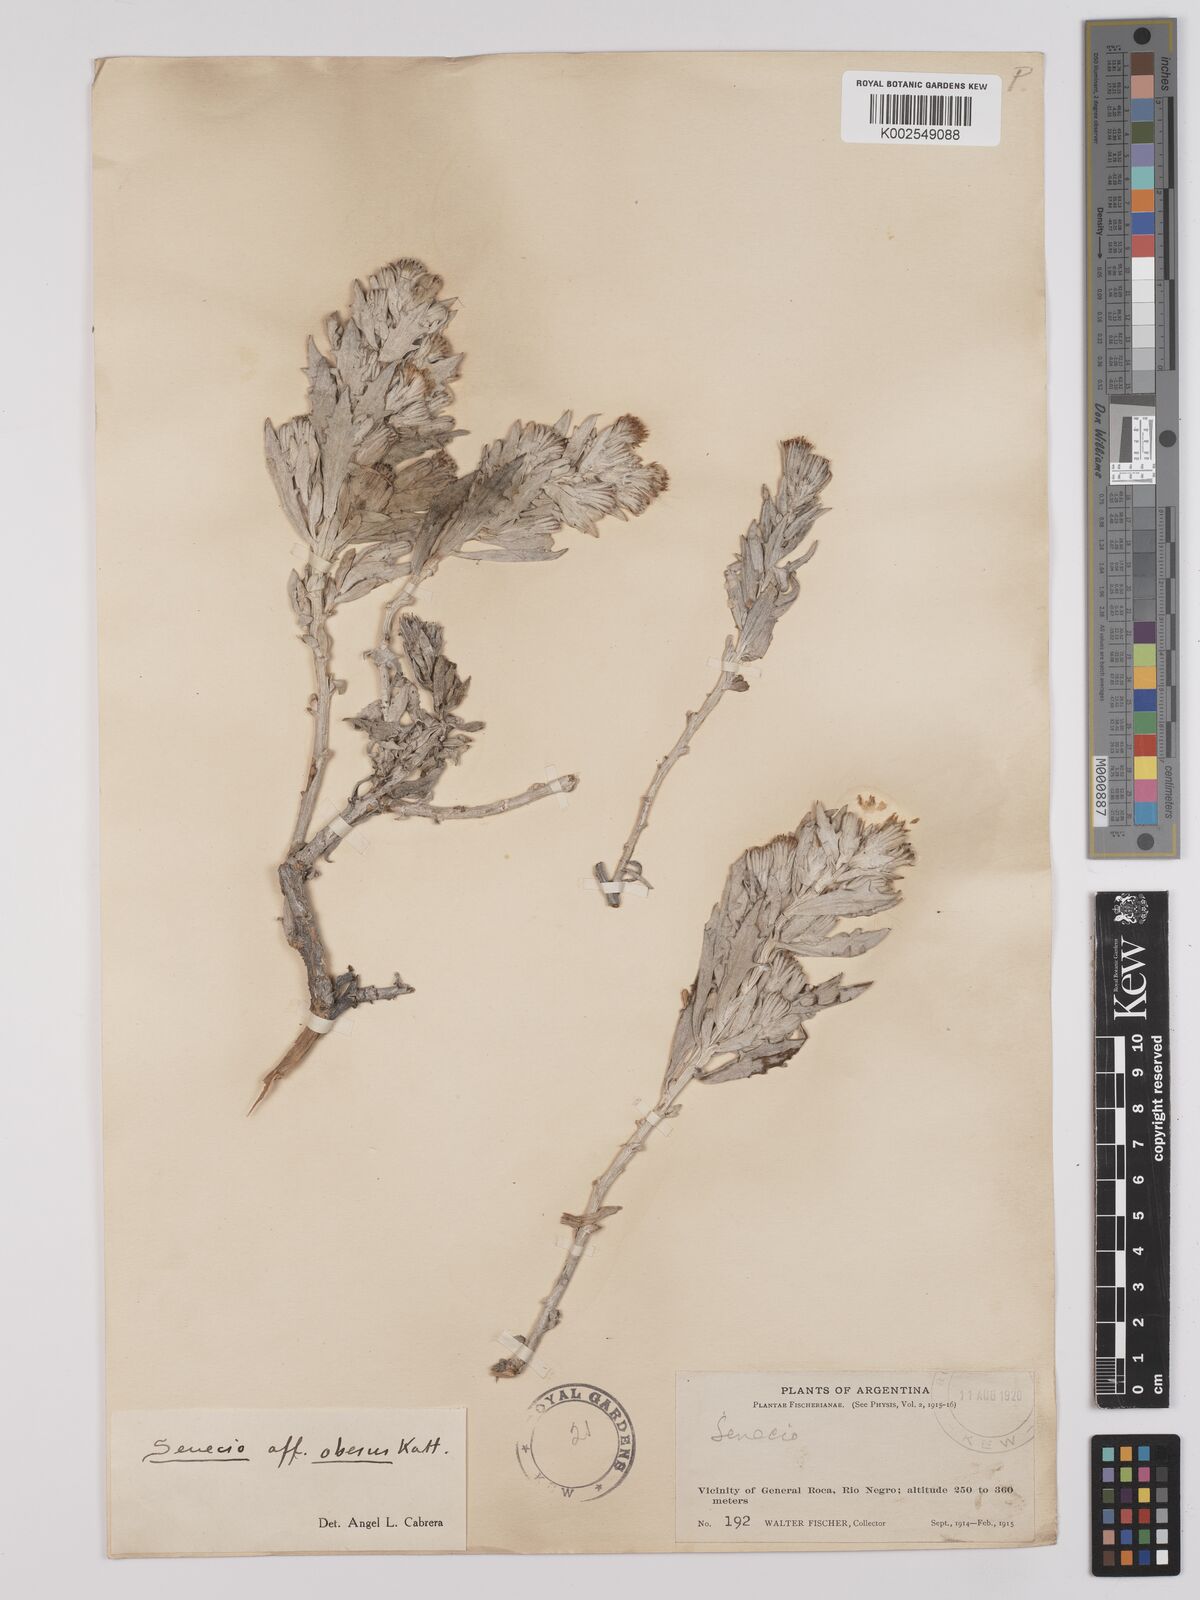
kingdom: Plantae
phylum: Tracheophyta
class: Magnoliopsida
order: Asterales
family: Asteraceae
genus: Senecio
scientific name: Senecio obesus
